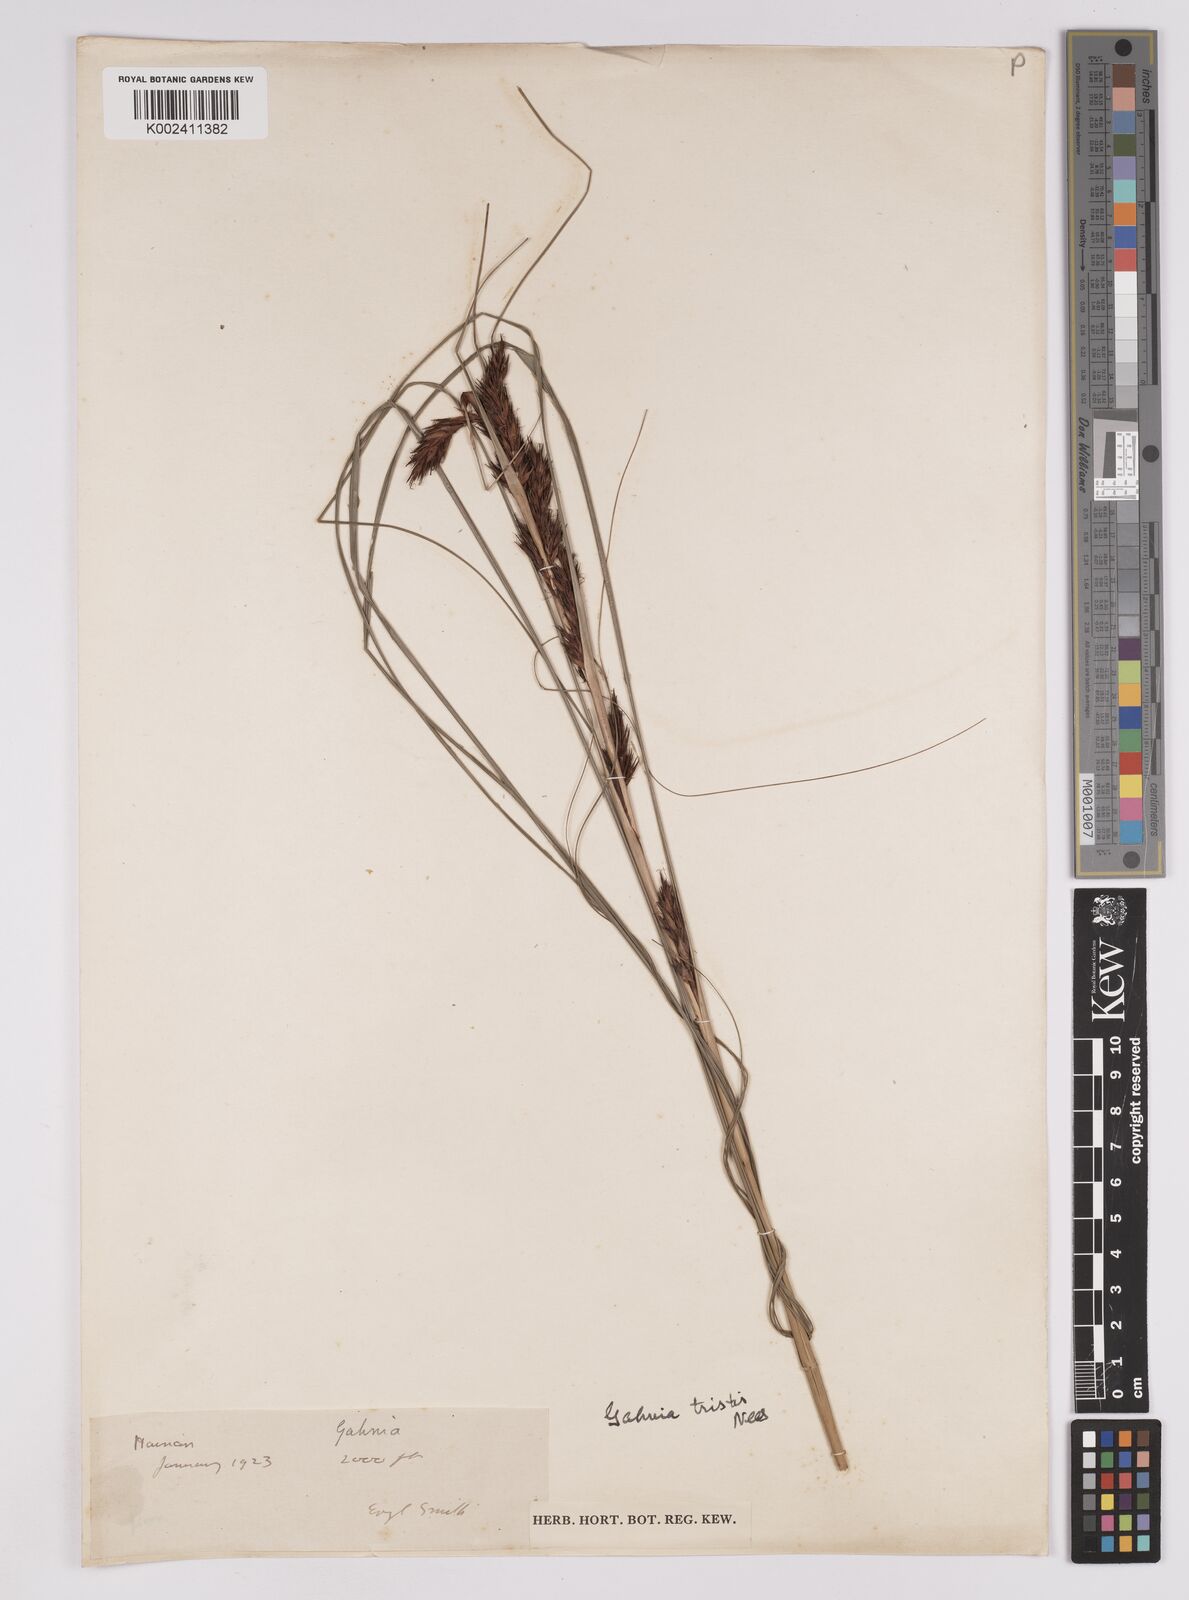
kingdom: Plantae
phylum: Tracheophyta
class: Liliopsida
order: Poales
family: Cyperaceae
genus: Gahnia
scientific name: Gahnia tristis
